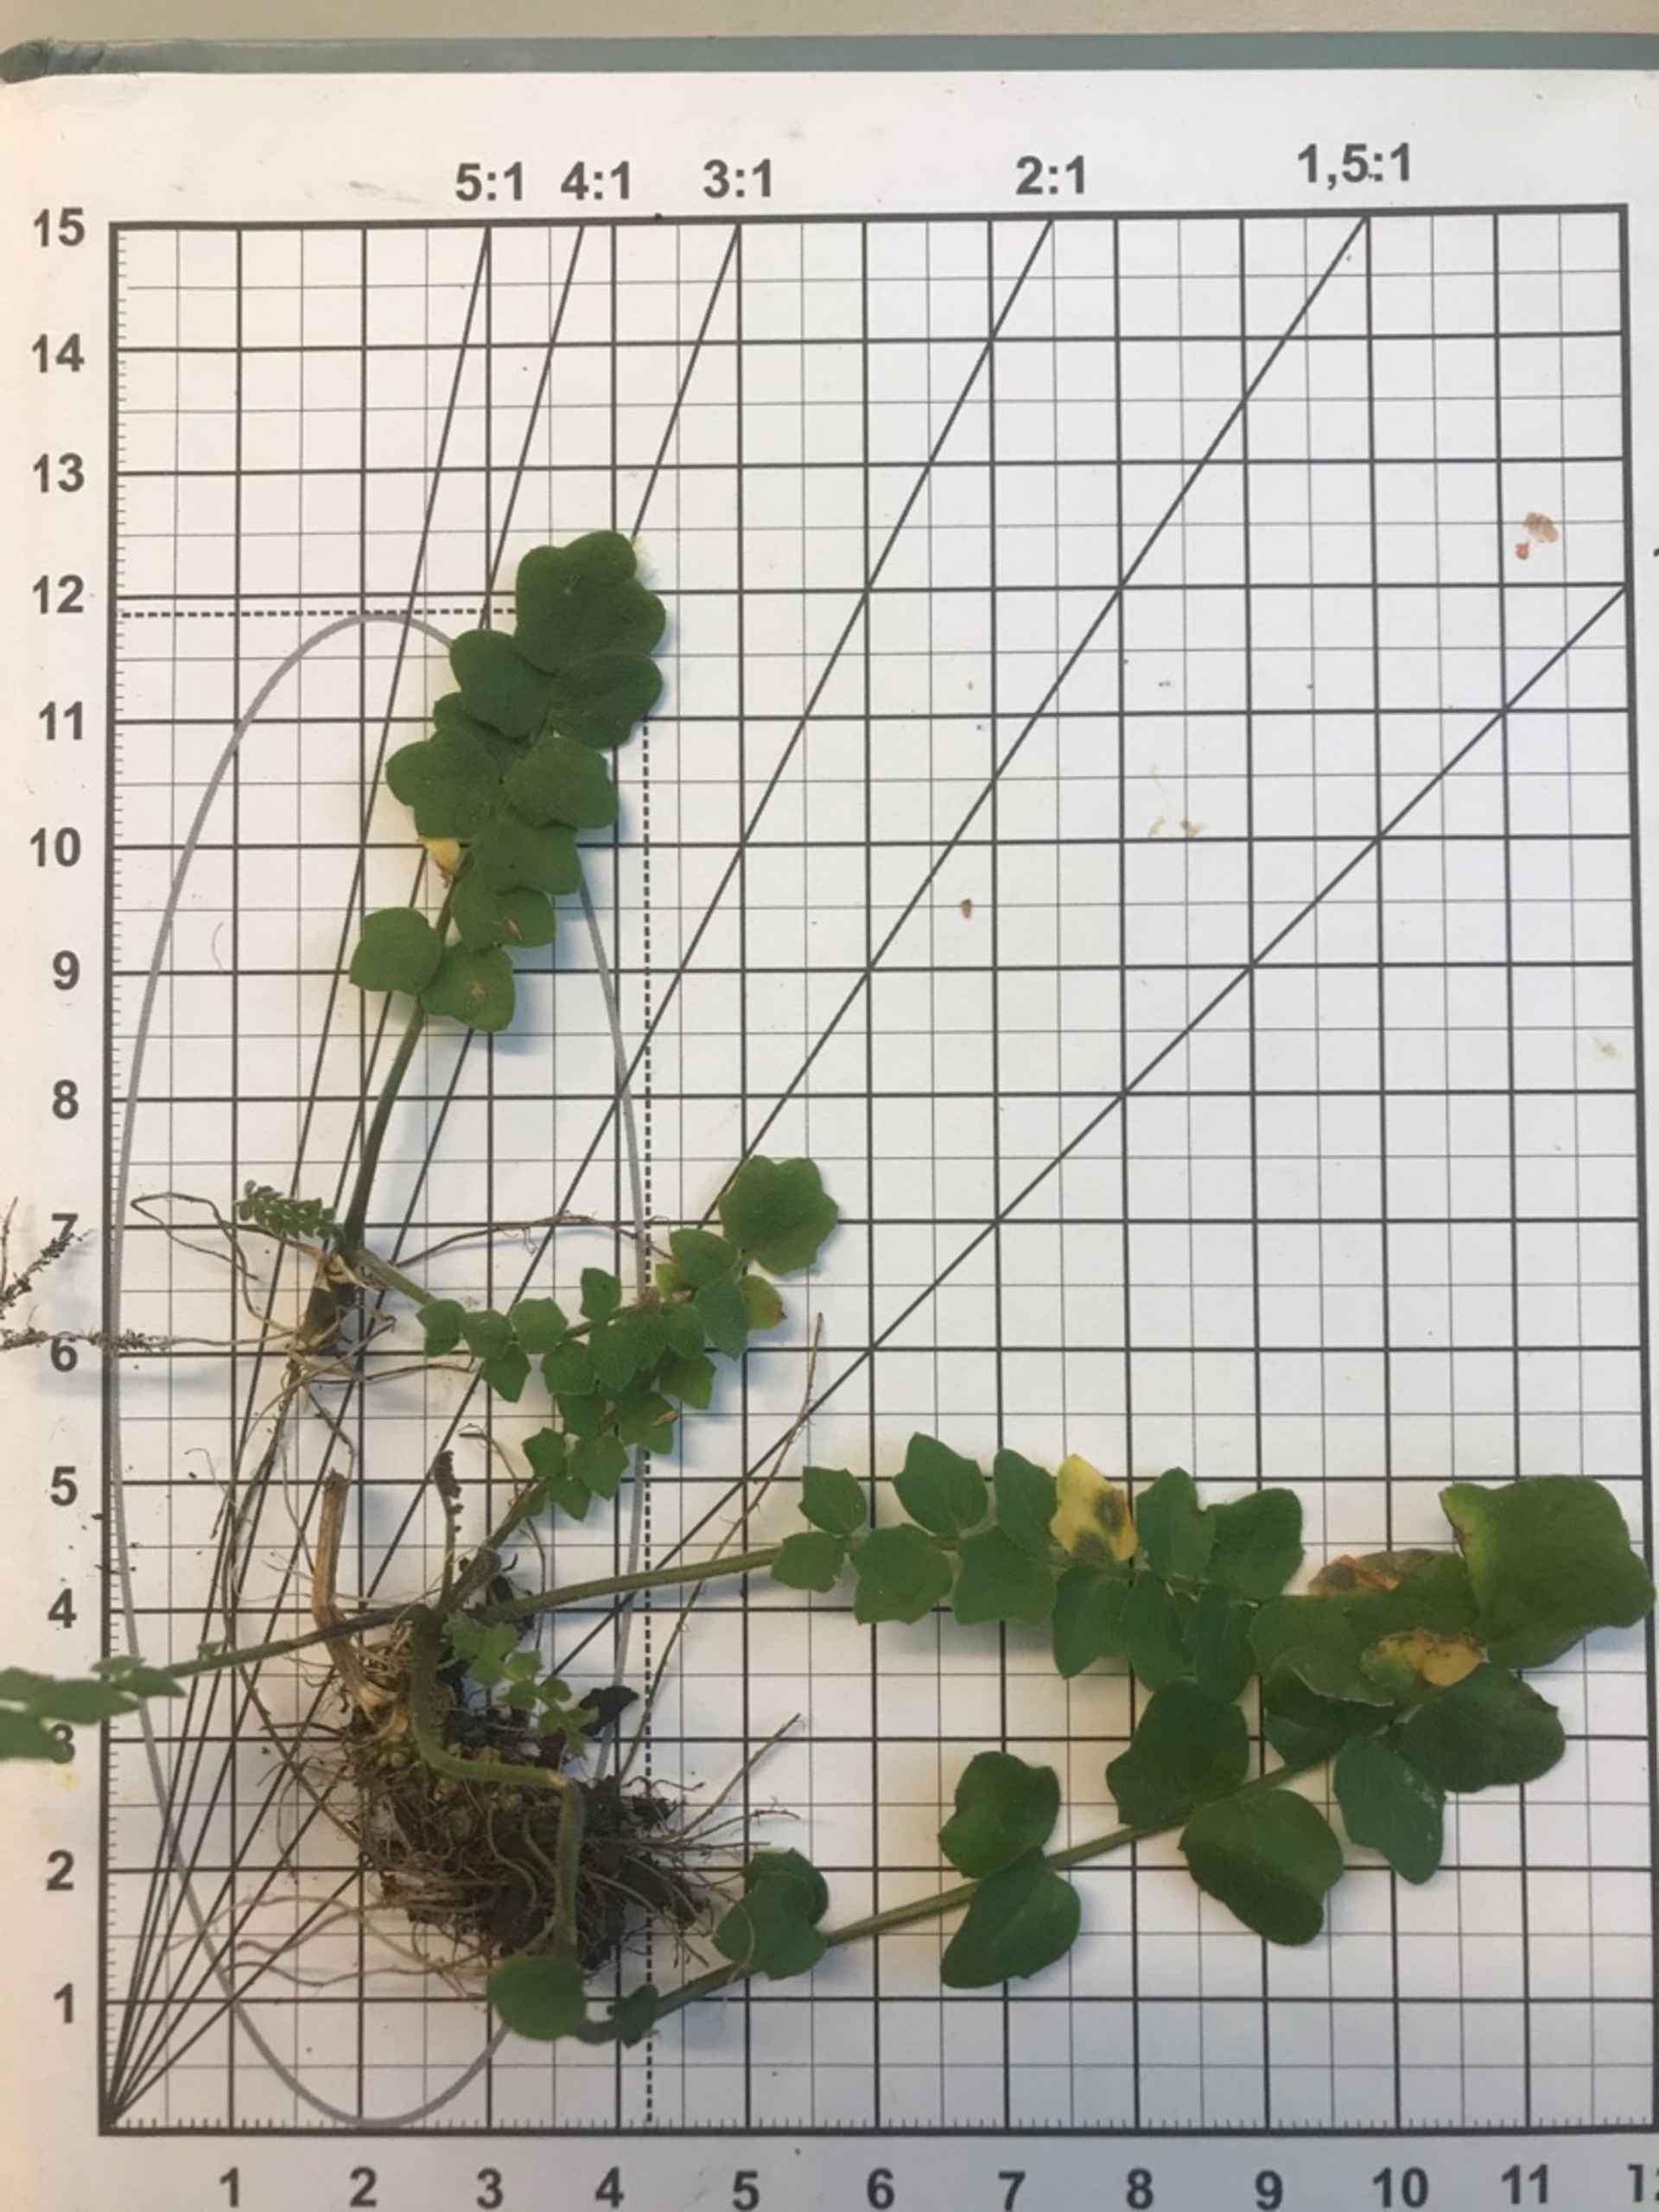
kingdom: Plantae
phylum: Tracheophyta
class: Magnoliopsida
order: Brassicales
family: Brassicaceae
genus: Cardamine
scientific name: Cardamine pratensis
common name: Engkarse
